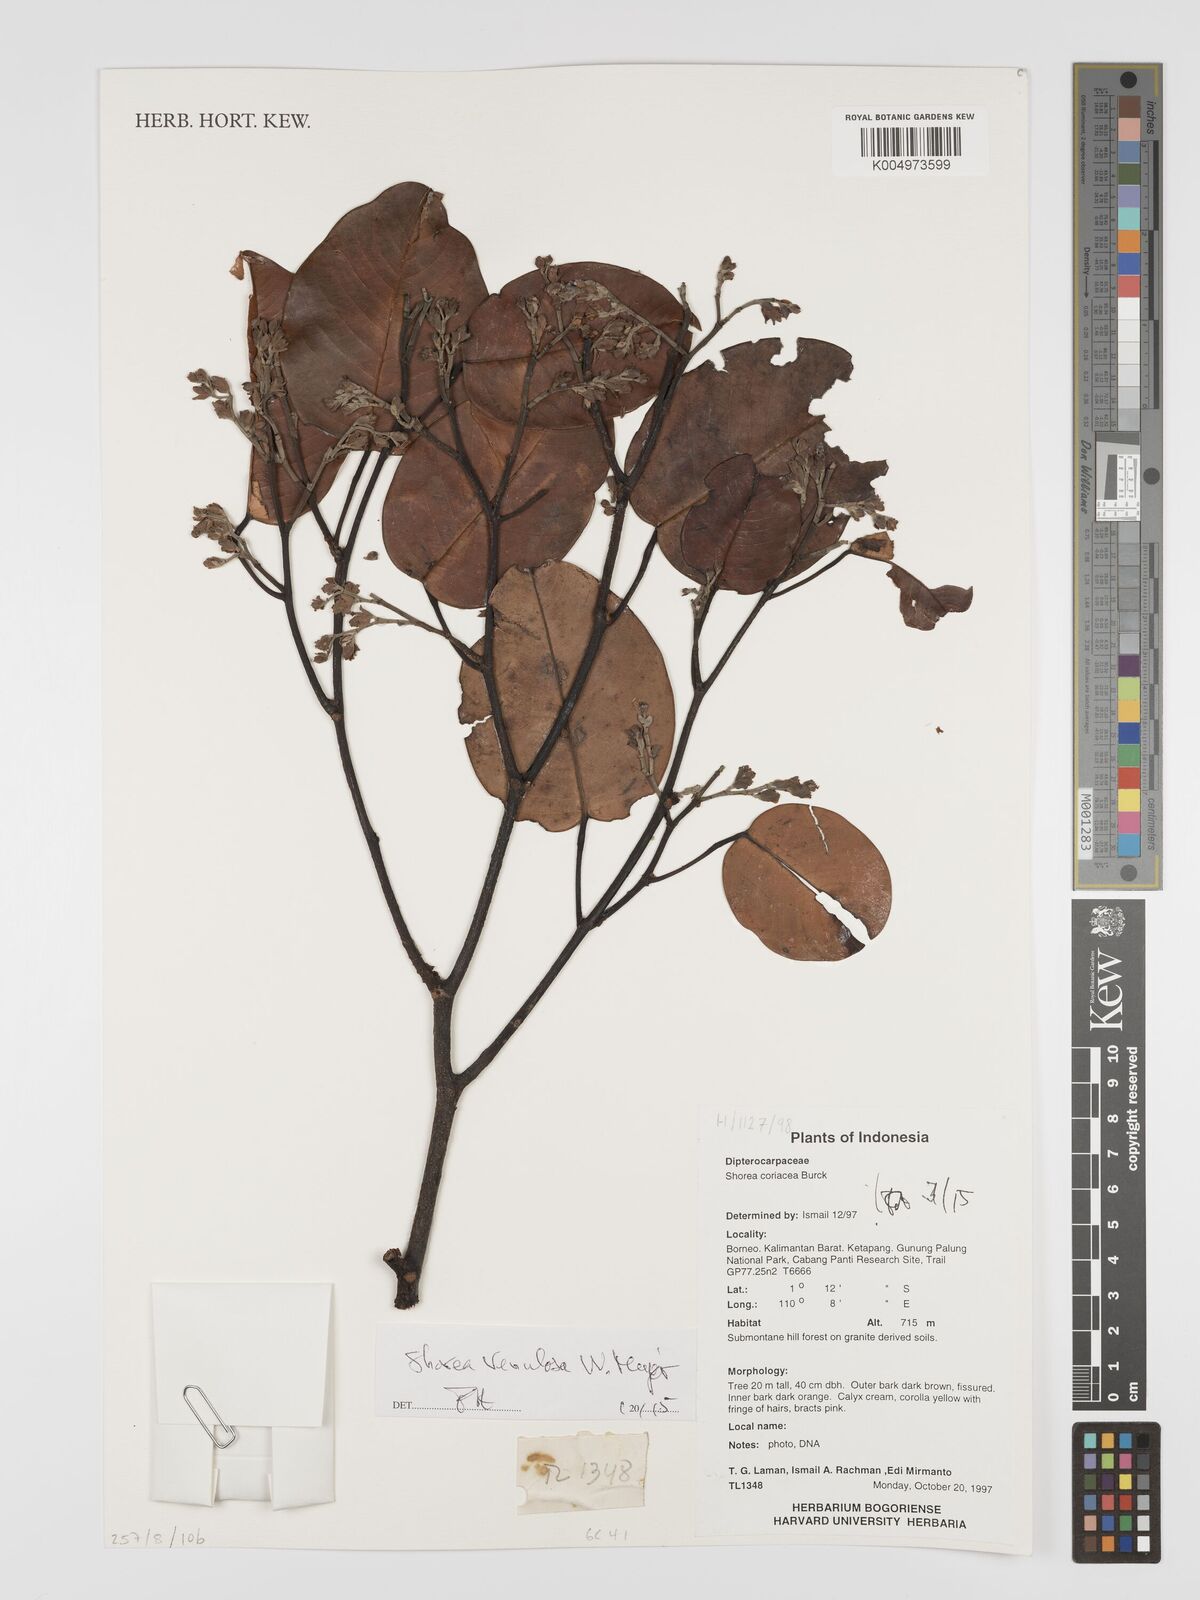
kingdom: Plantae
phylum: Tracheophyta
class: Magnoliopsida
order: Malvales
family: Dipterocarpaceae
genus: Shorea
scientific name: Shorea venulosa
